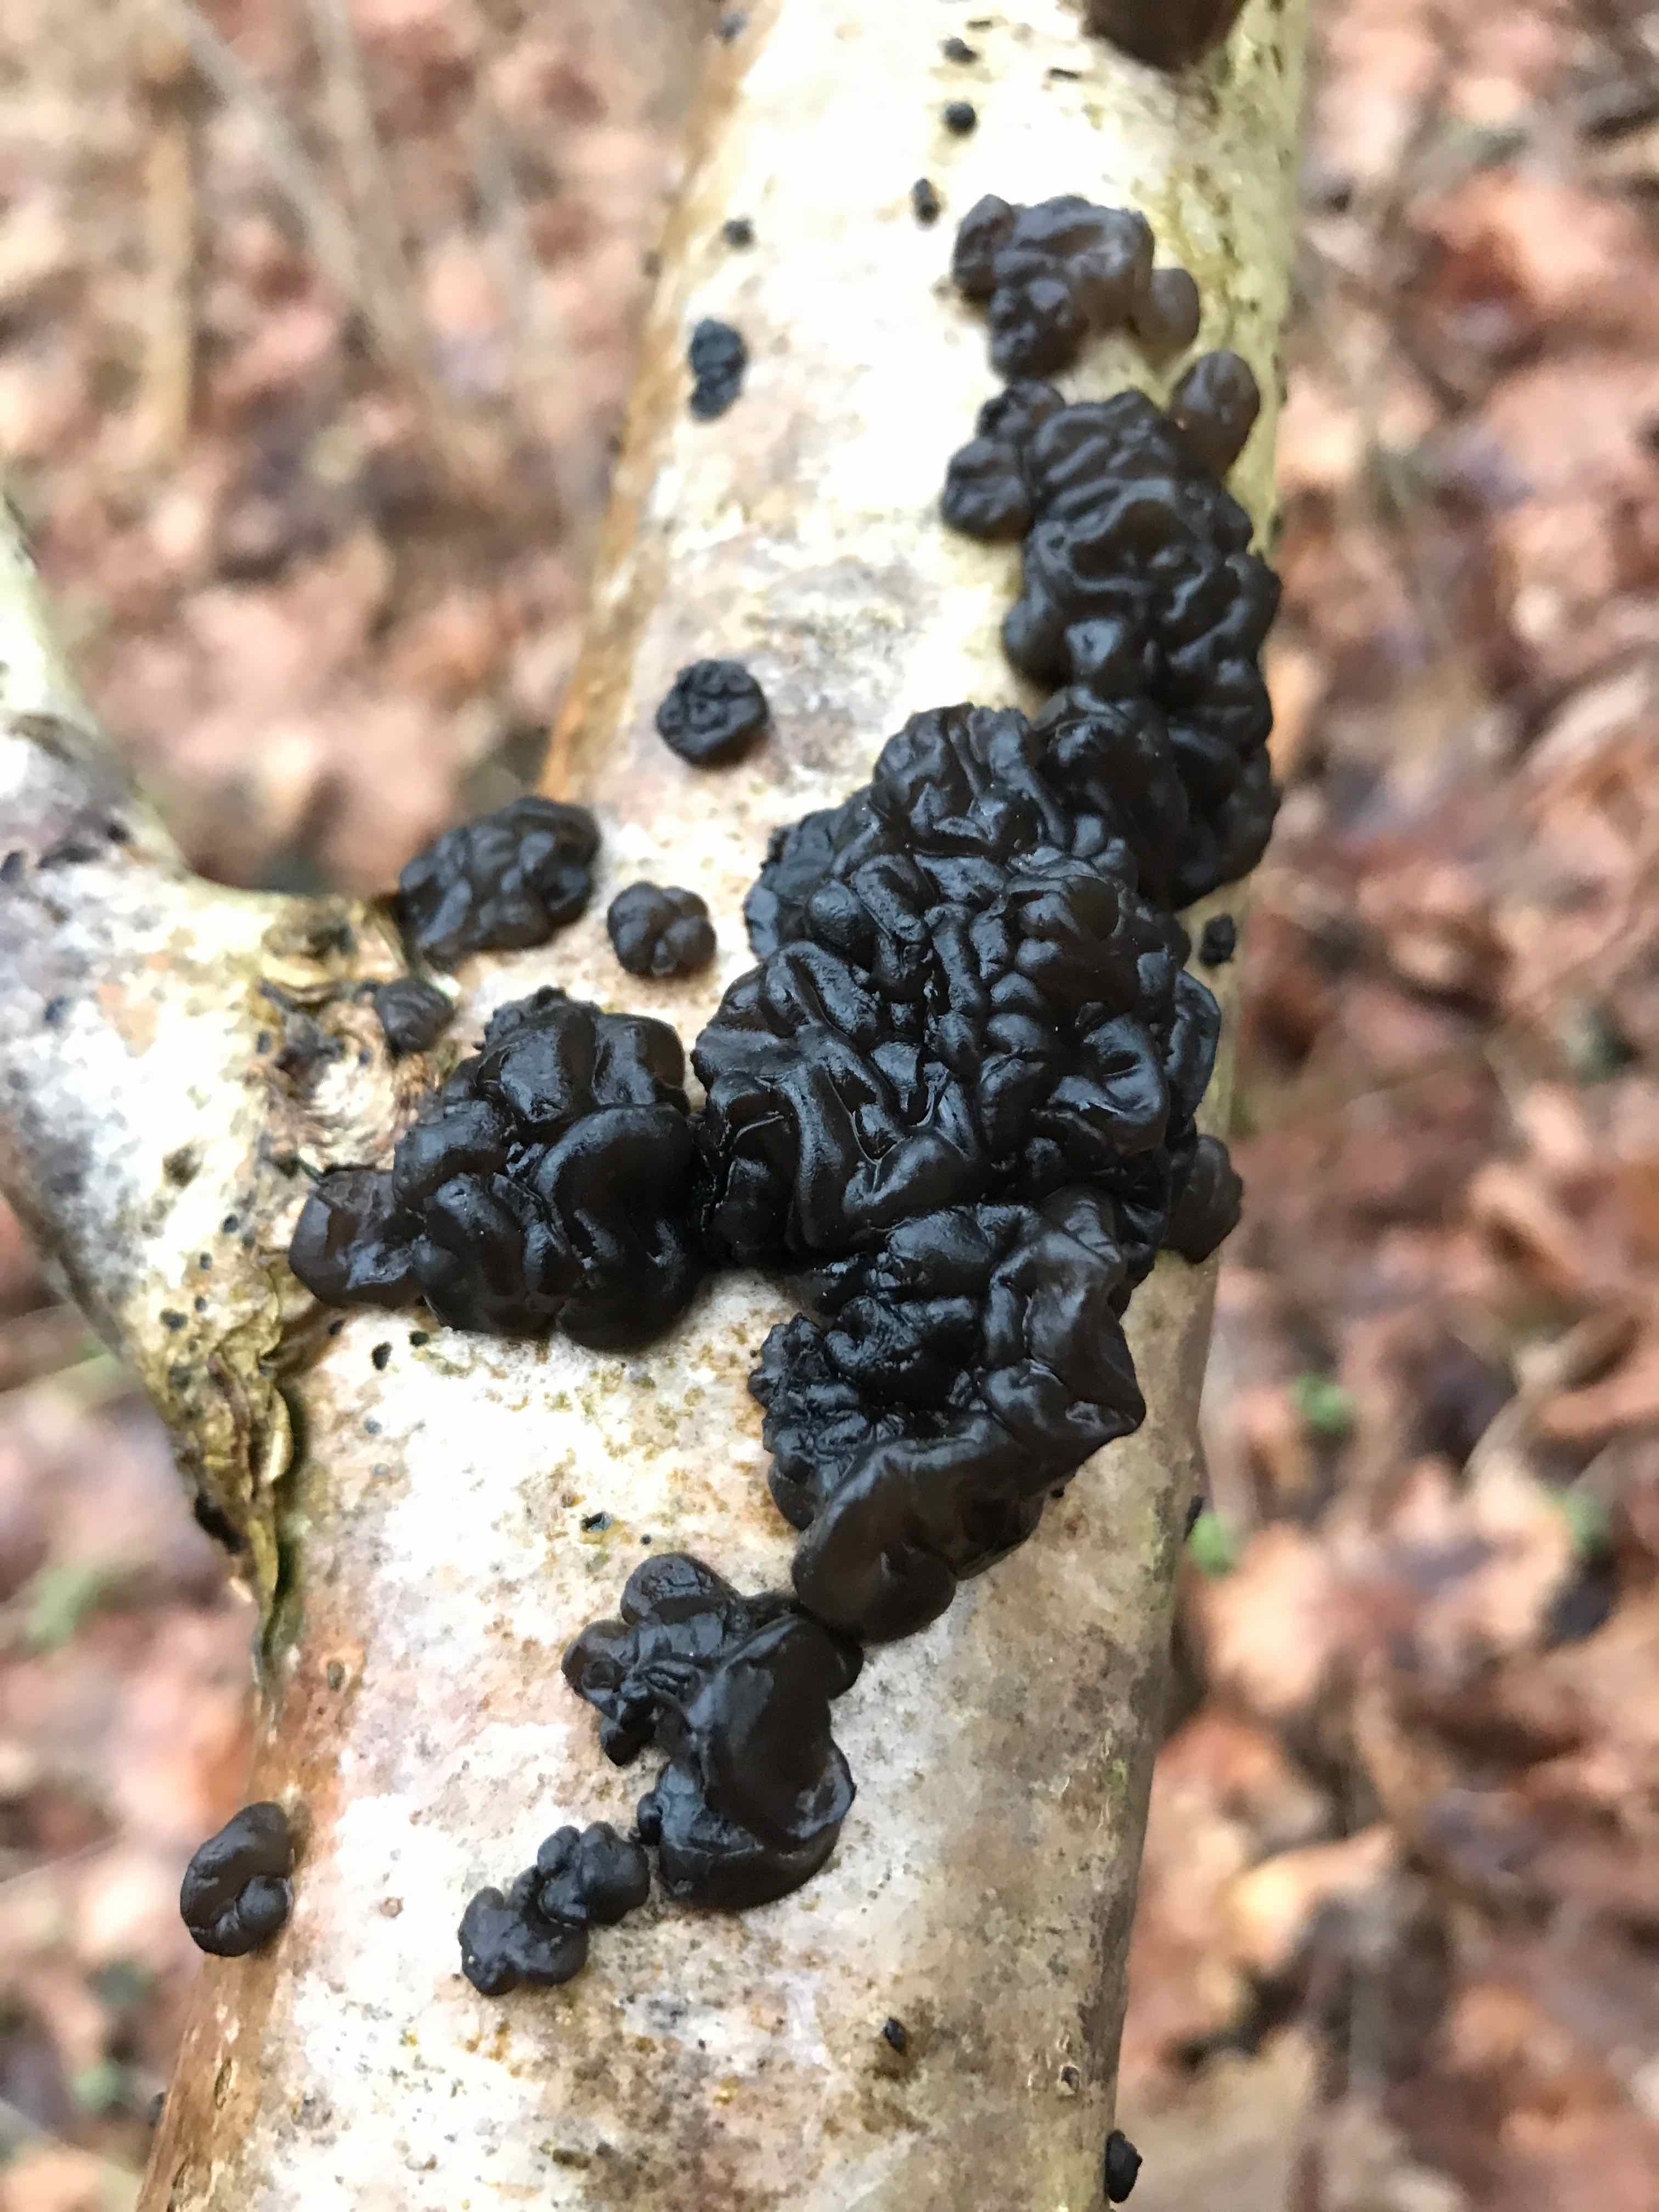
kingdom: Fungi
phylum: Basidiomycota
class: Agaricomycetes
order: Auriculariales
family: Auriculariaceae
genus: Exidia
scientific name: Exidia nigricans
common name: almindelig bævretop
